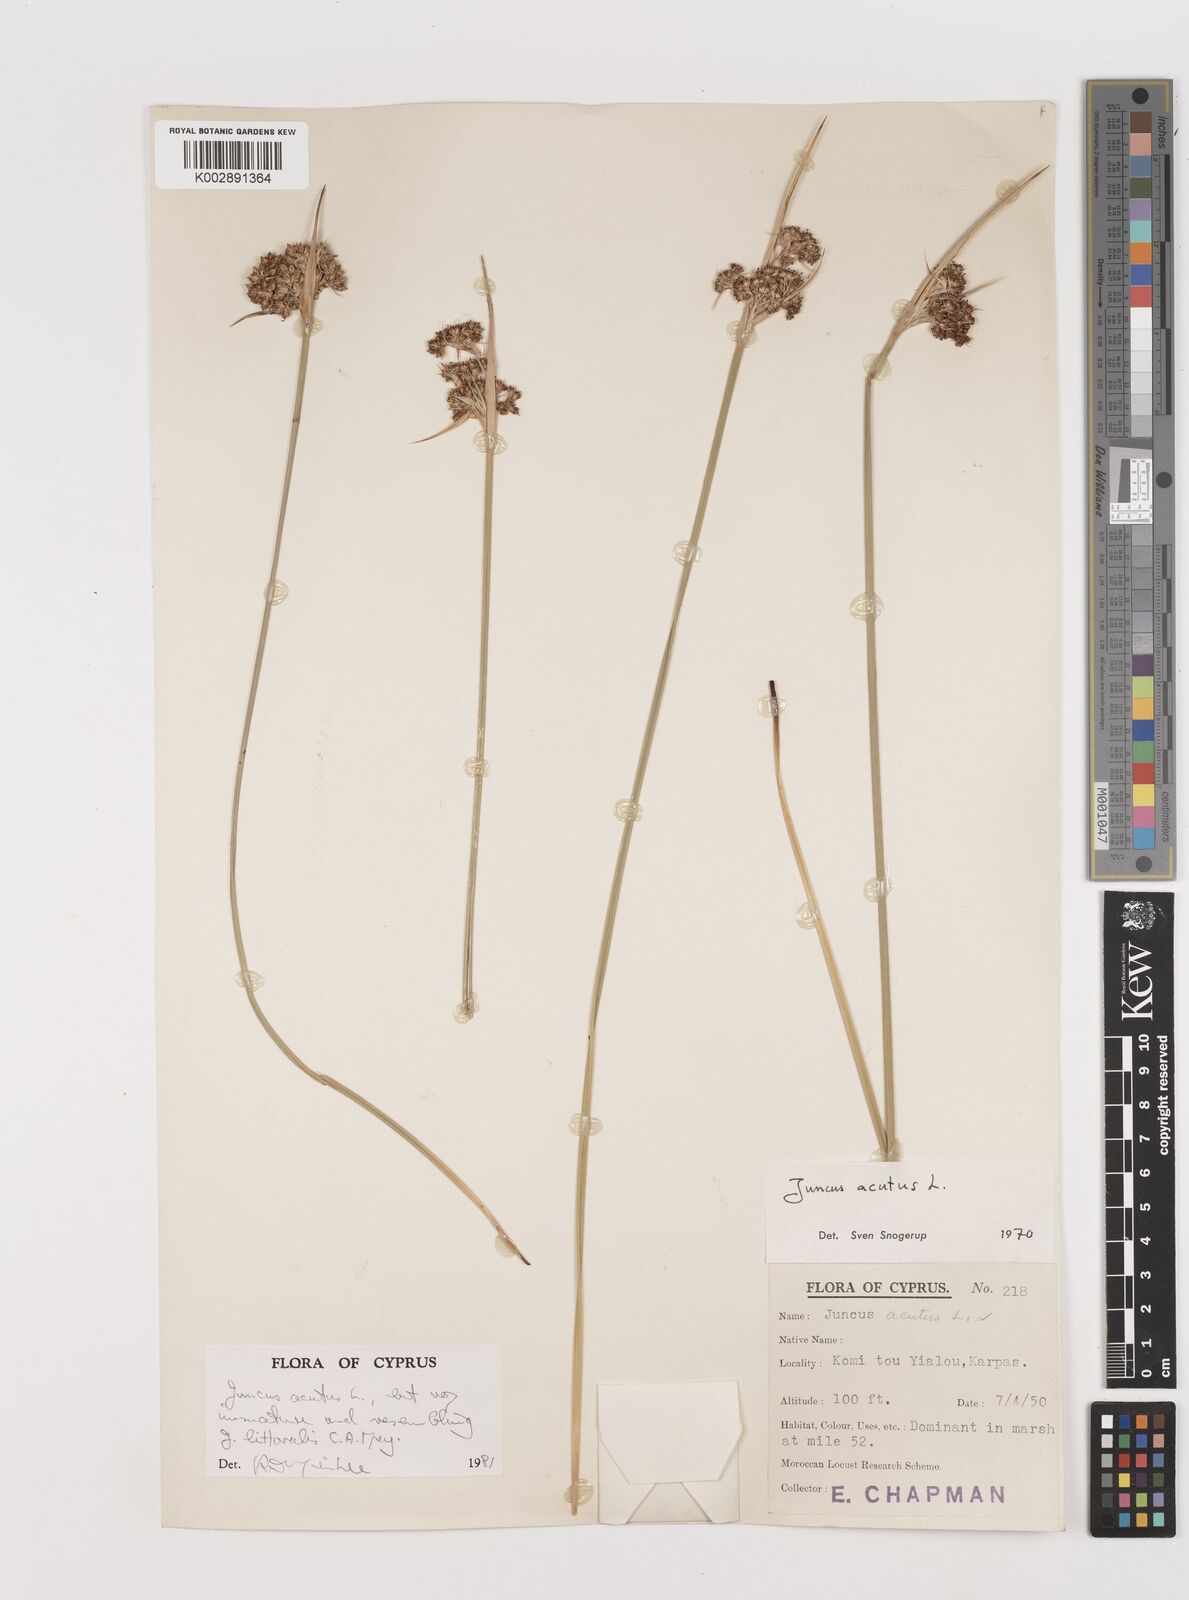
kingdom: Plantae
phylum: Tracheophyta
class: Liliopsida
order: Poales
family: Juncaceae
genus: Juncus
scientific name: Juncus acutus
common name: Sharp rush
